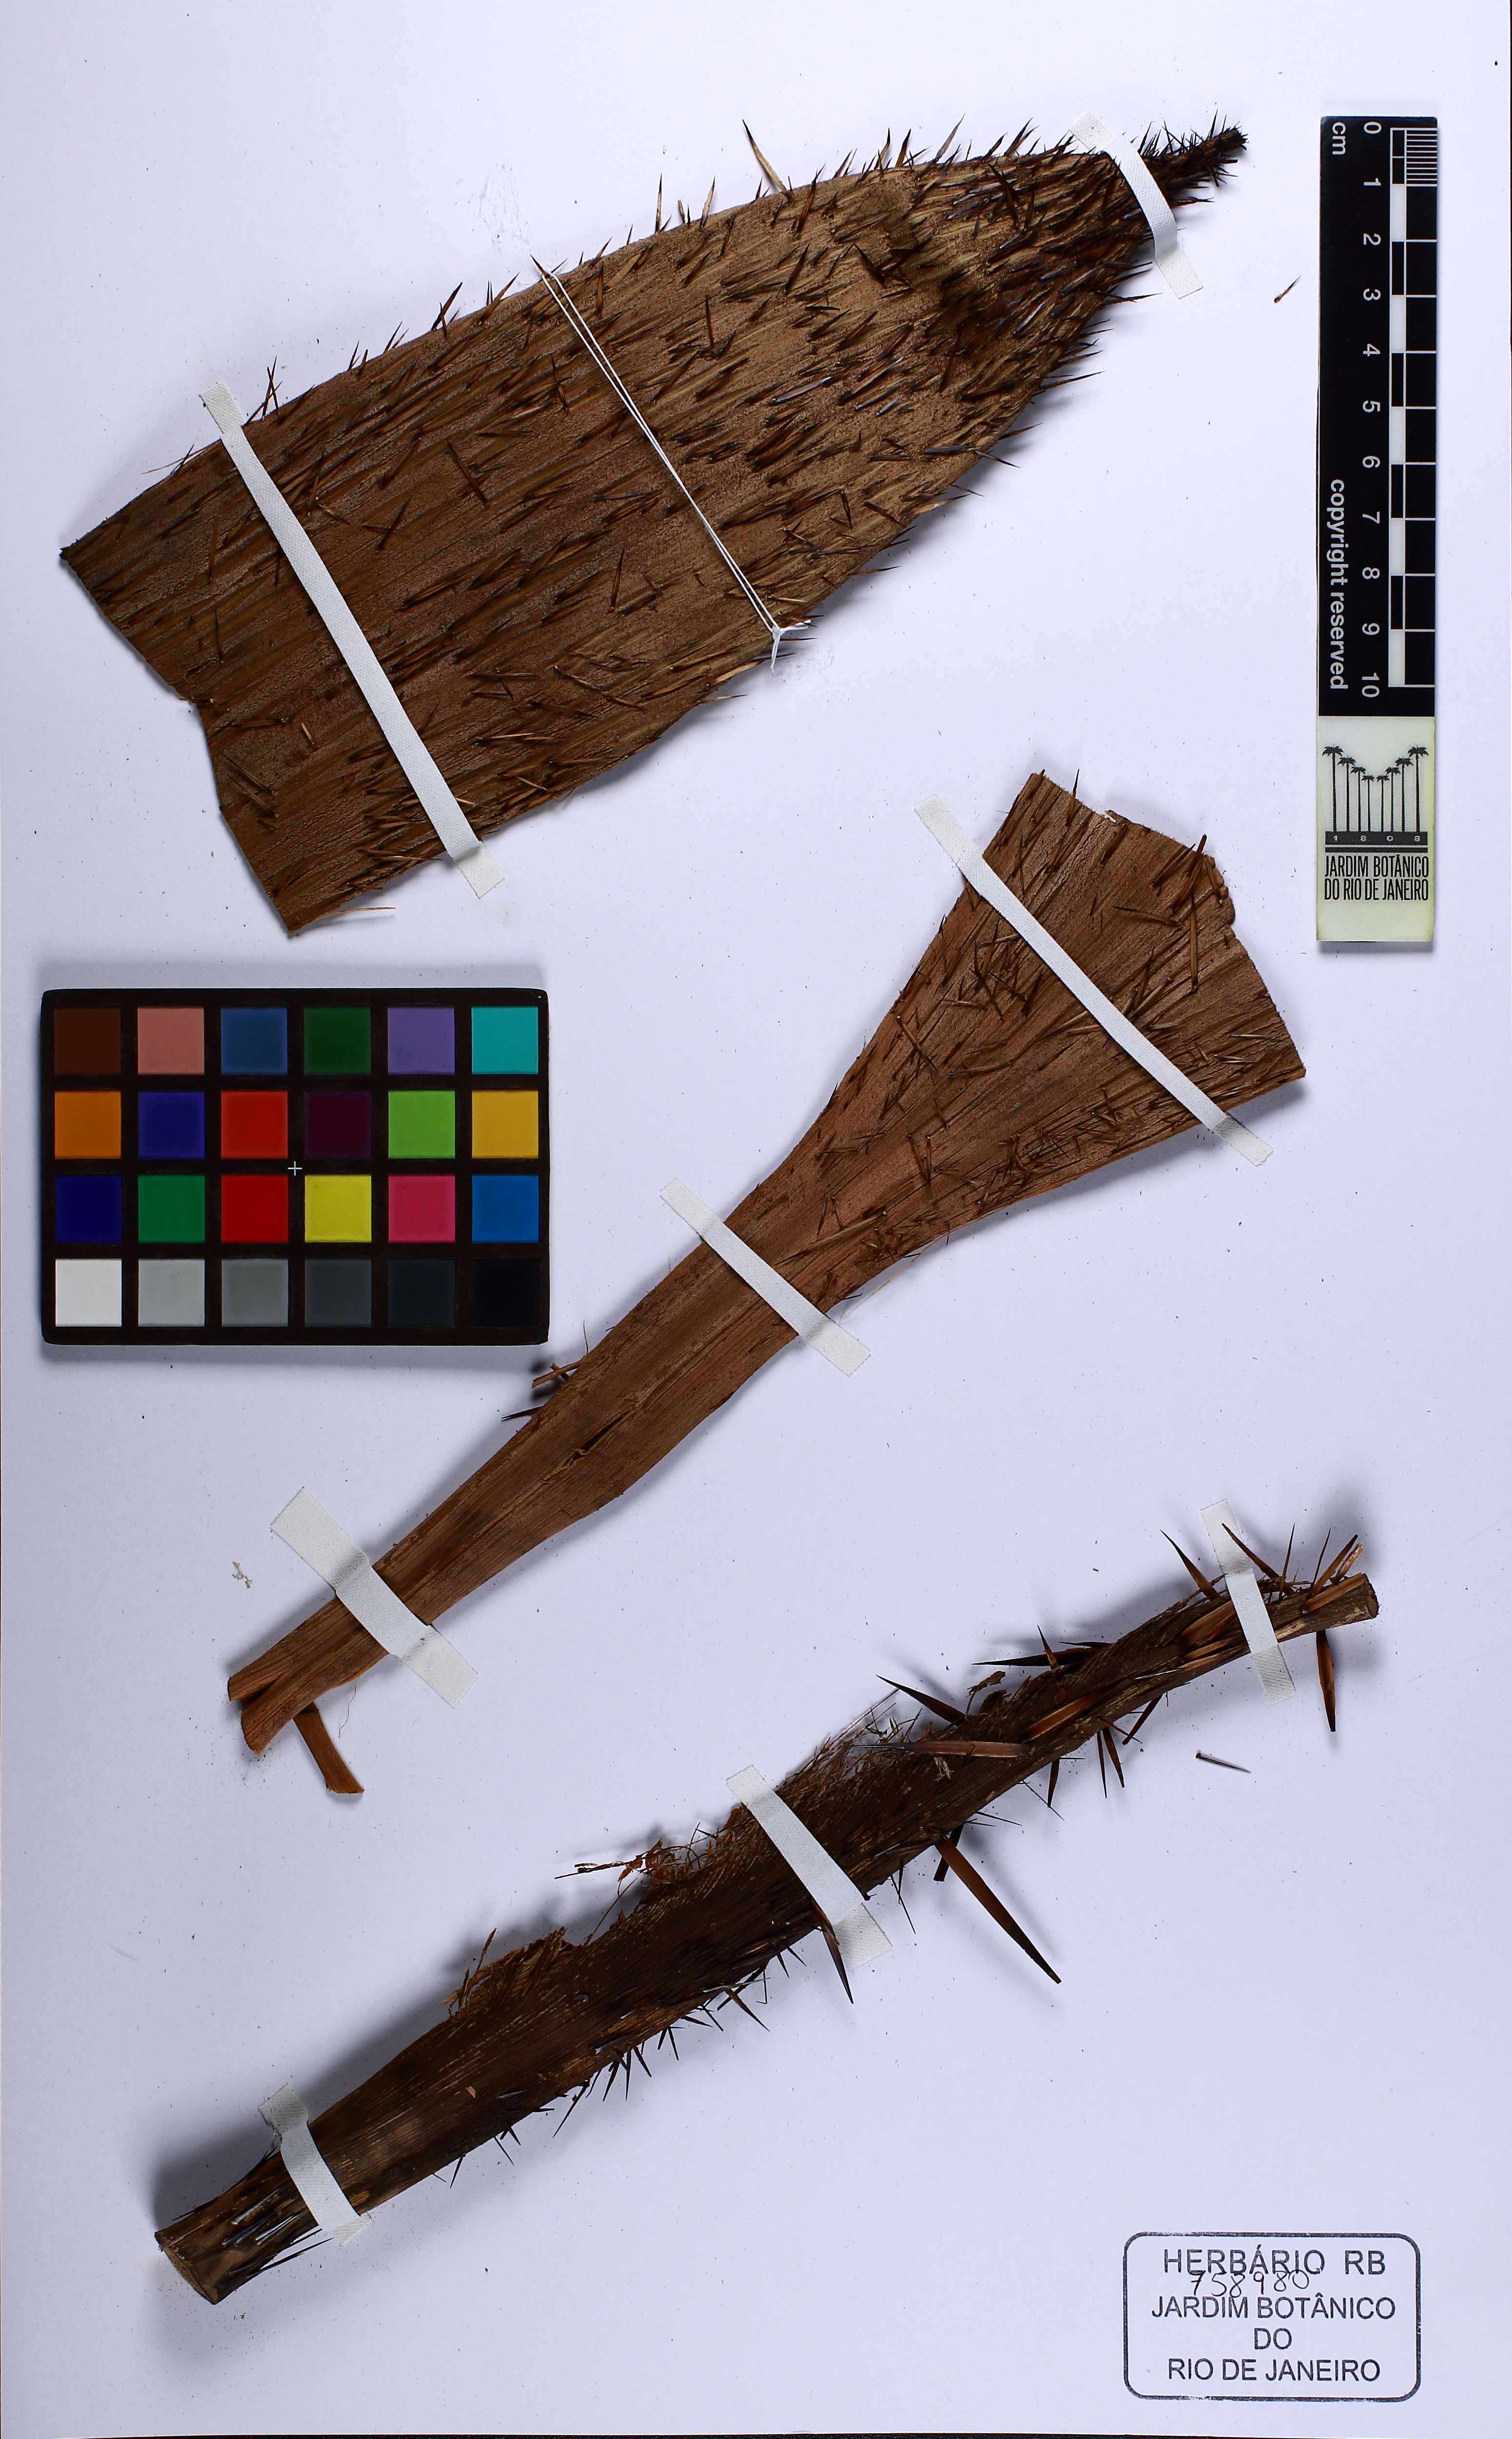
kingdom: Plantae
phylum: Tracheophyta
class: Liliopsida
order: Arecales
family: Arecaceae
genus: Bactris
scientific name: Bactris maraja
